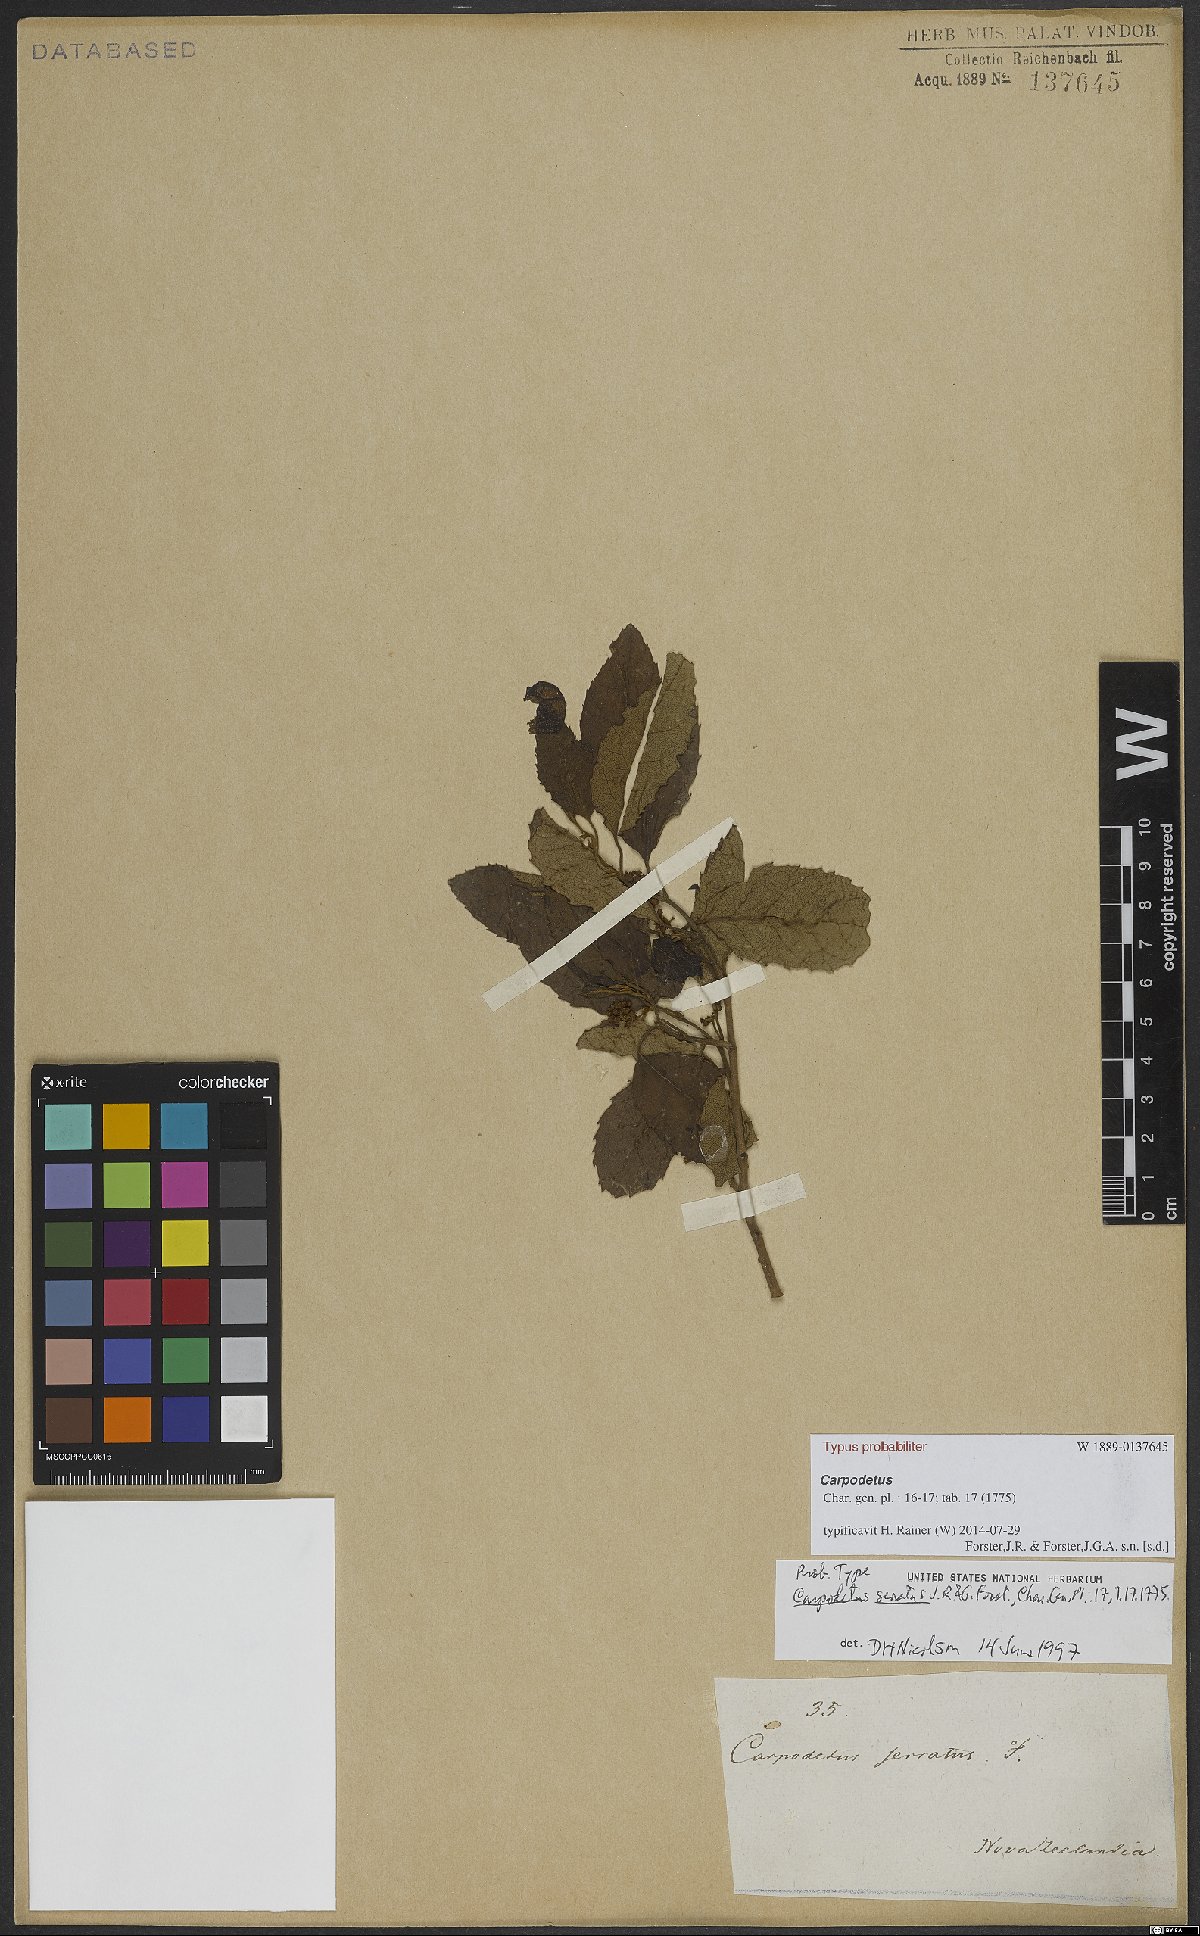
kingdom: Plantae
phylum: Tracheophyta
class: Magnoliopsida
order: Asterales
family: Rousseaceae
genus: Carpodetus
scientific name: Carpodetus serratus
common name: White mapau
